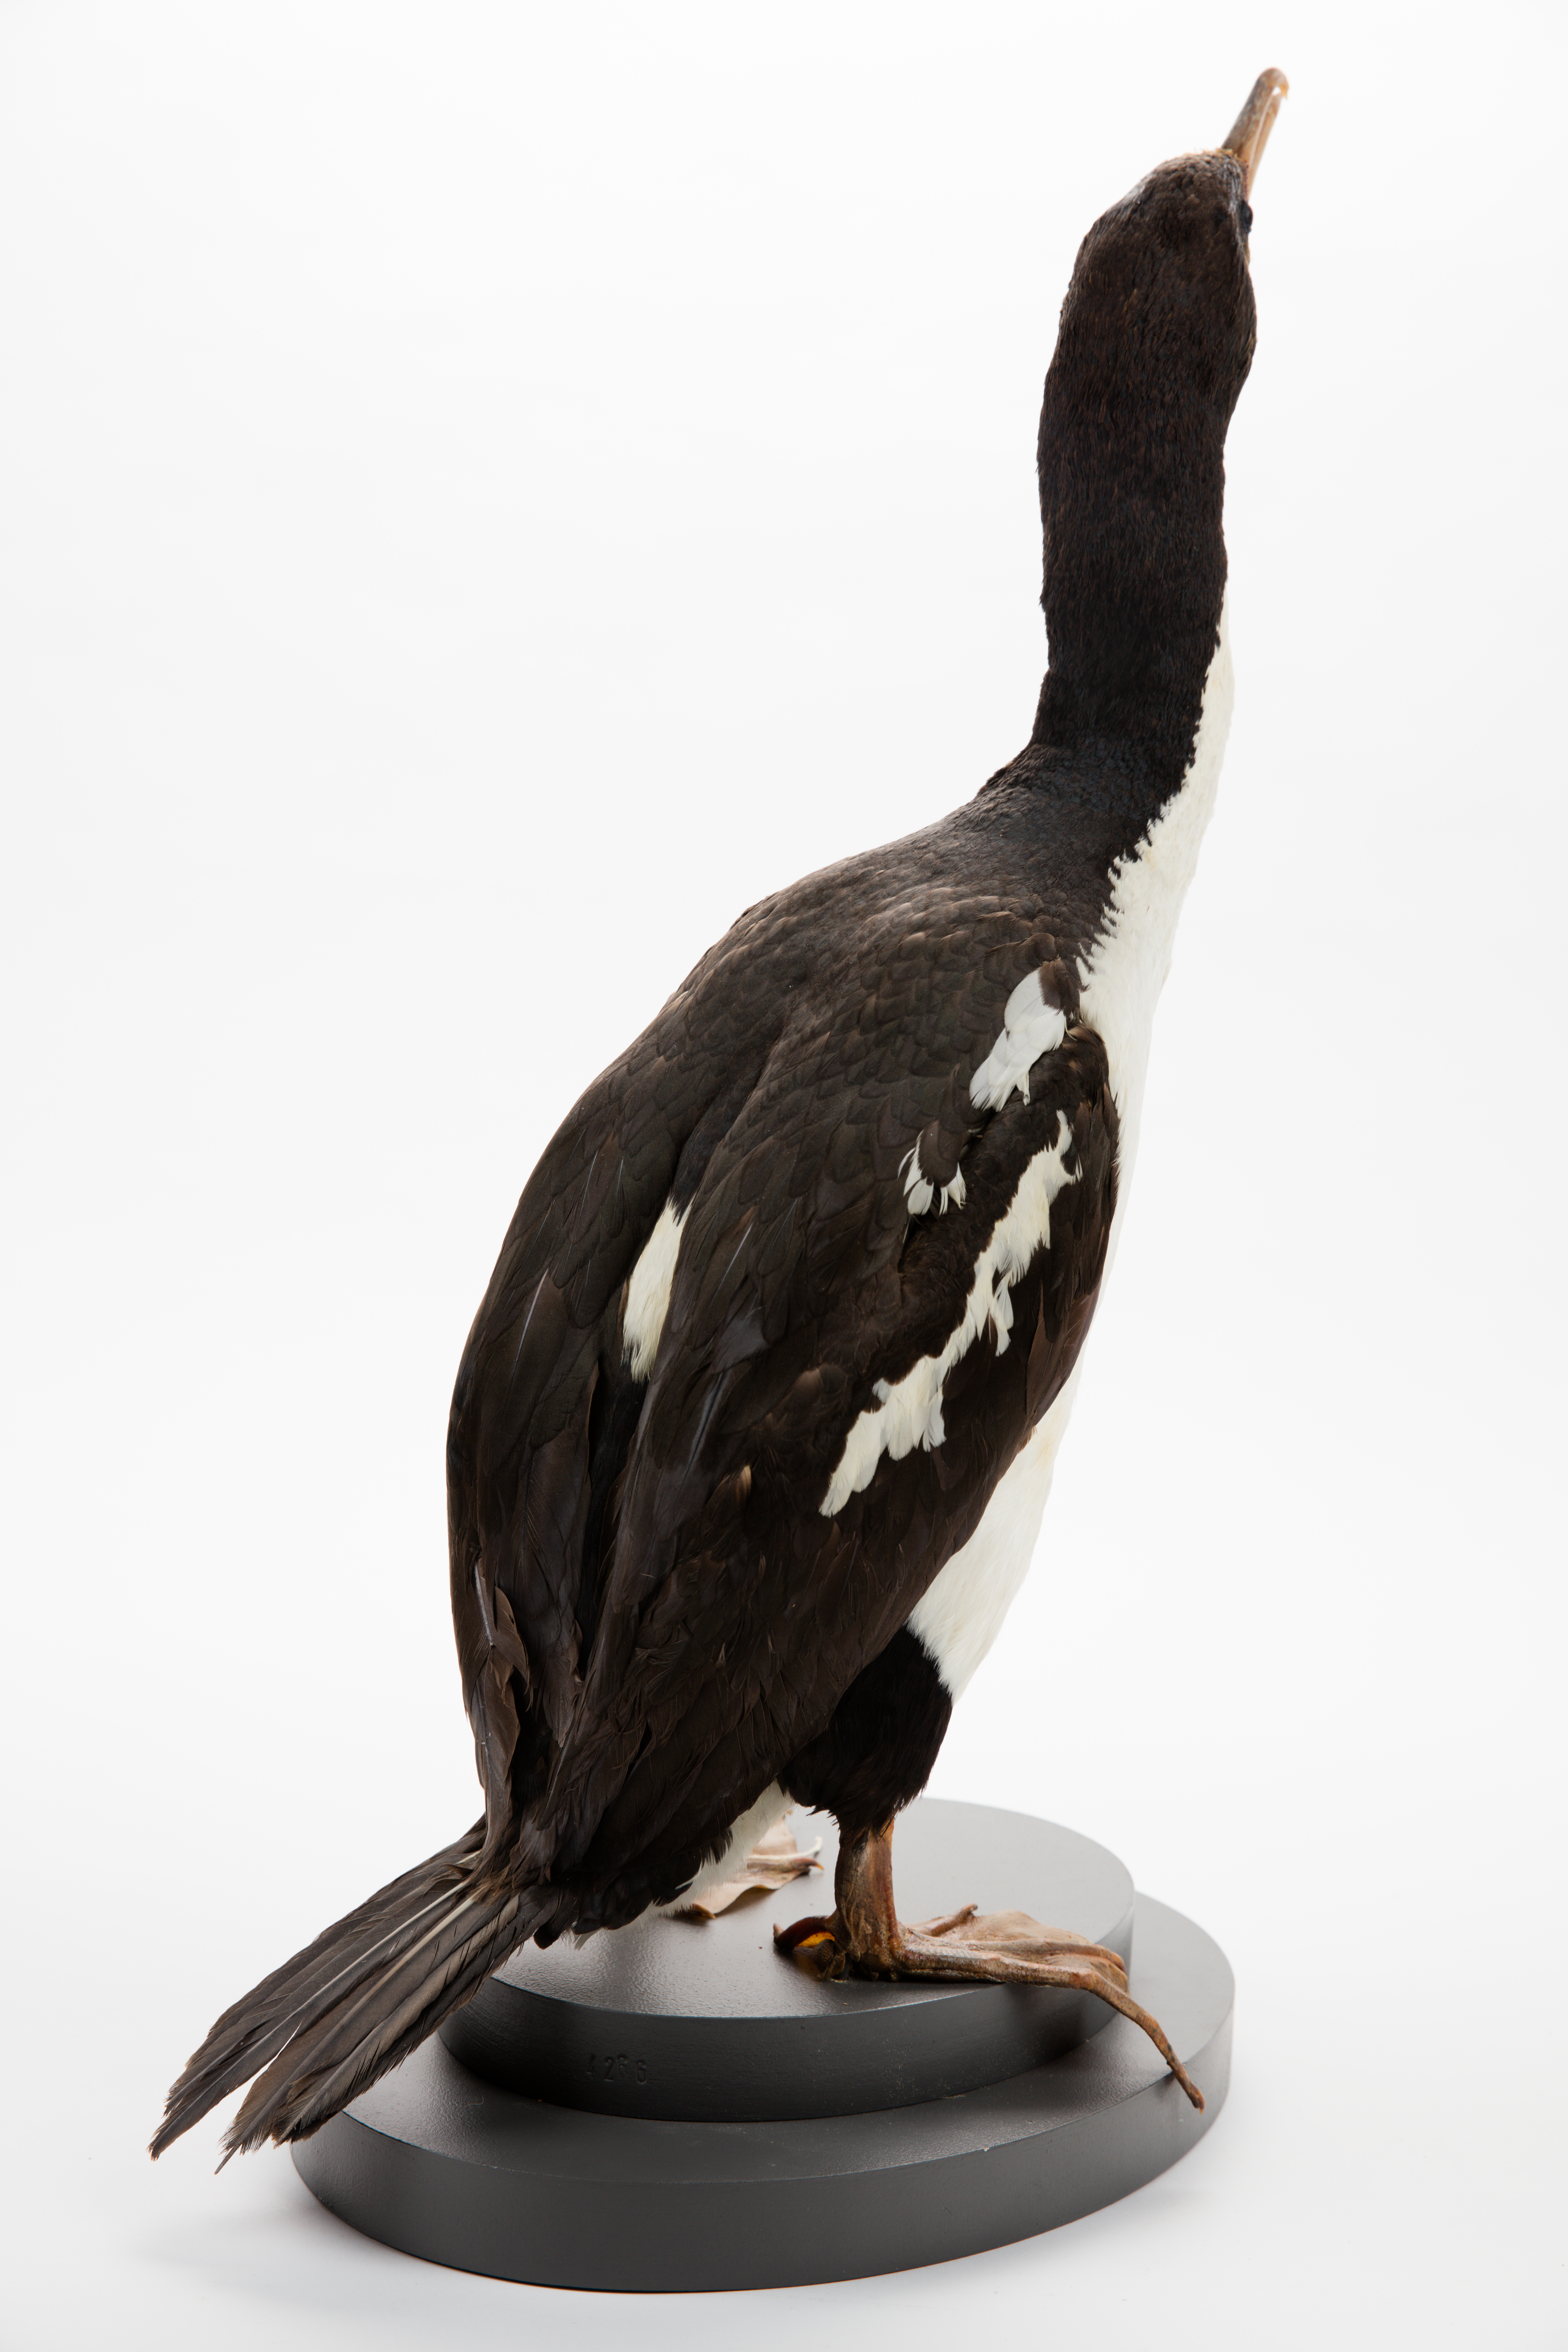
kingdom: Animalia
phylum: Chordata
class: Aves
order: Suliformes
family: Phalacrocoracidae
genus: Leucocarbo
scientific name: Leucocarbo carunculatus
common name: Rough-faced shag
